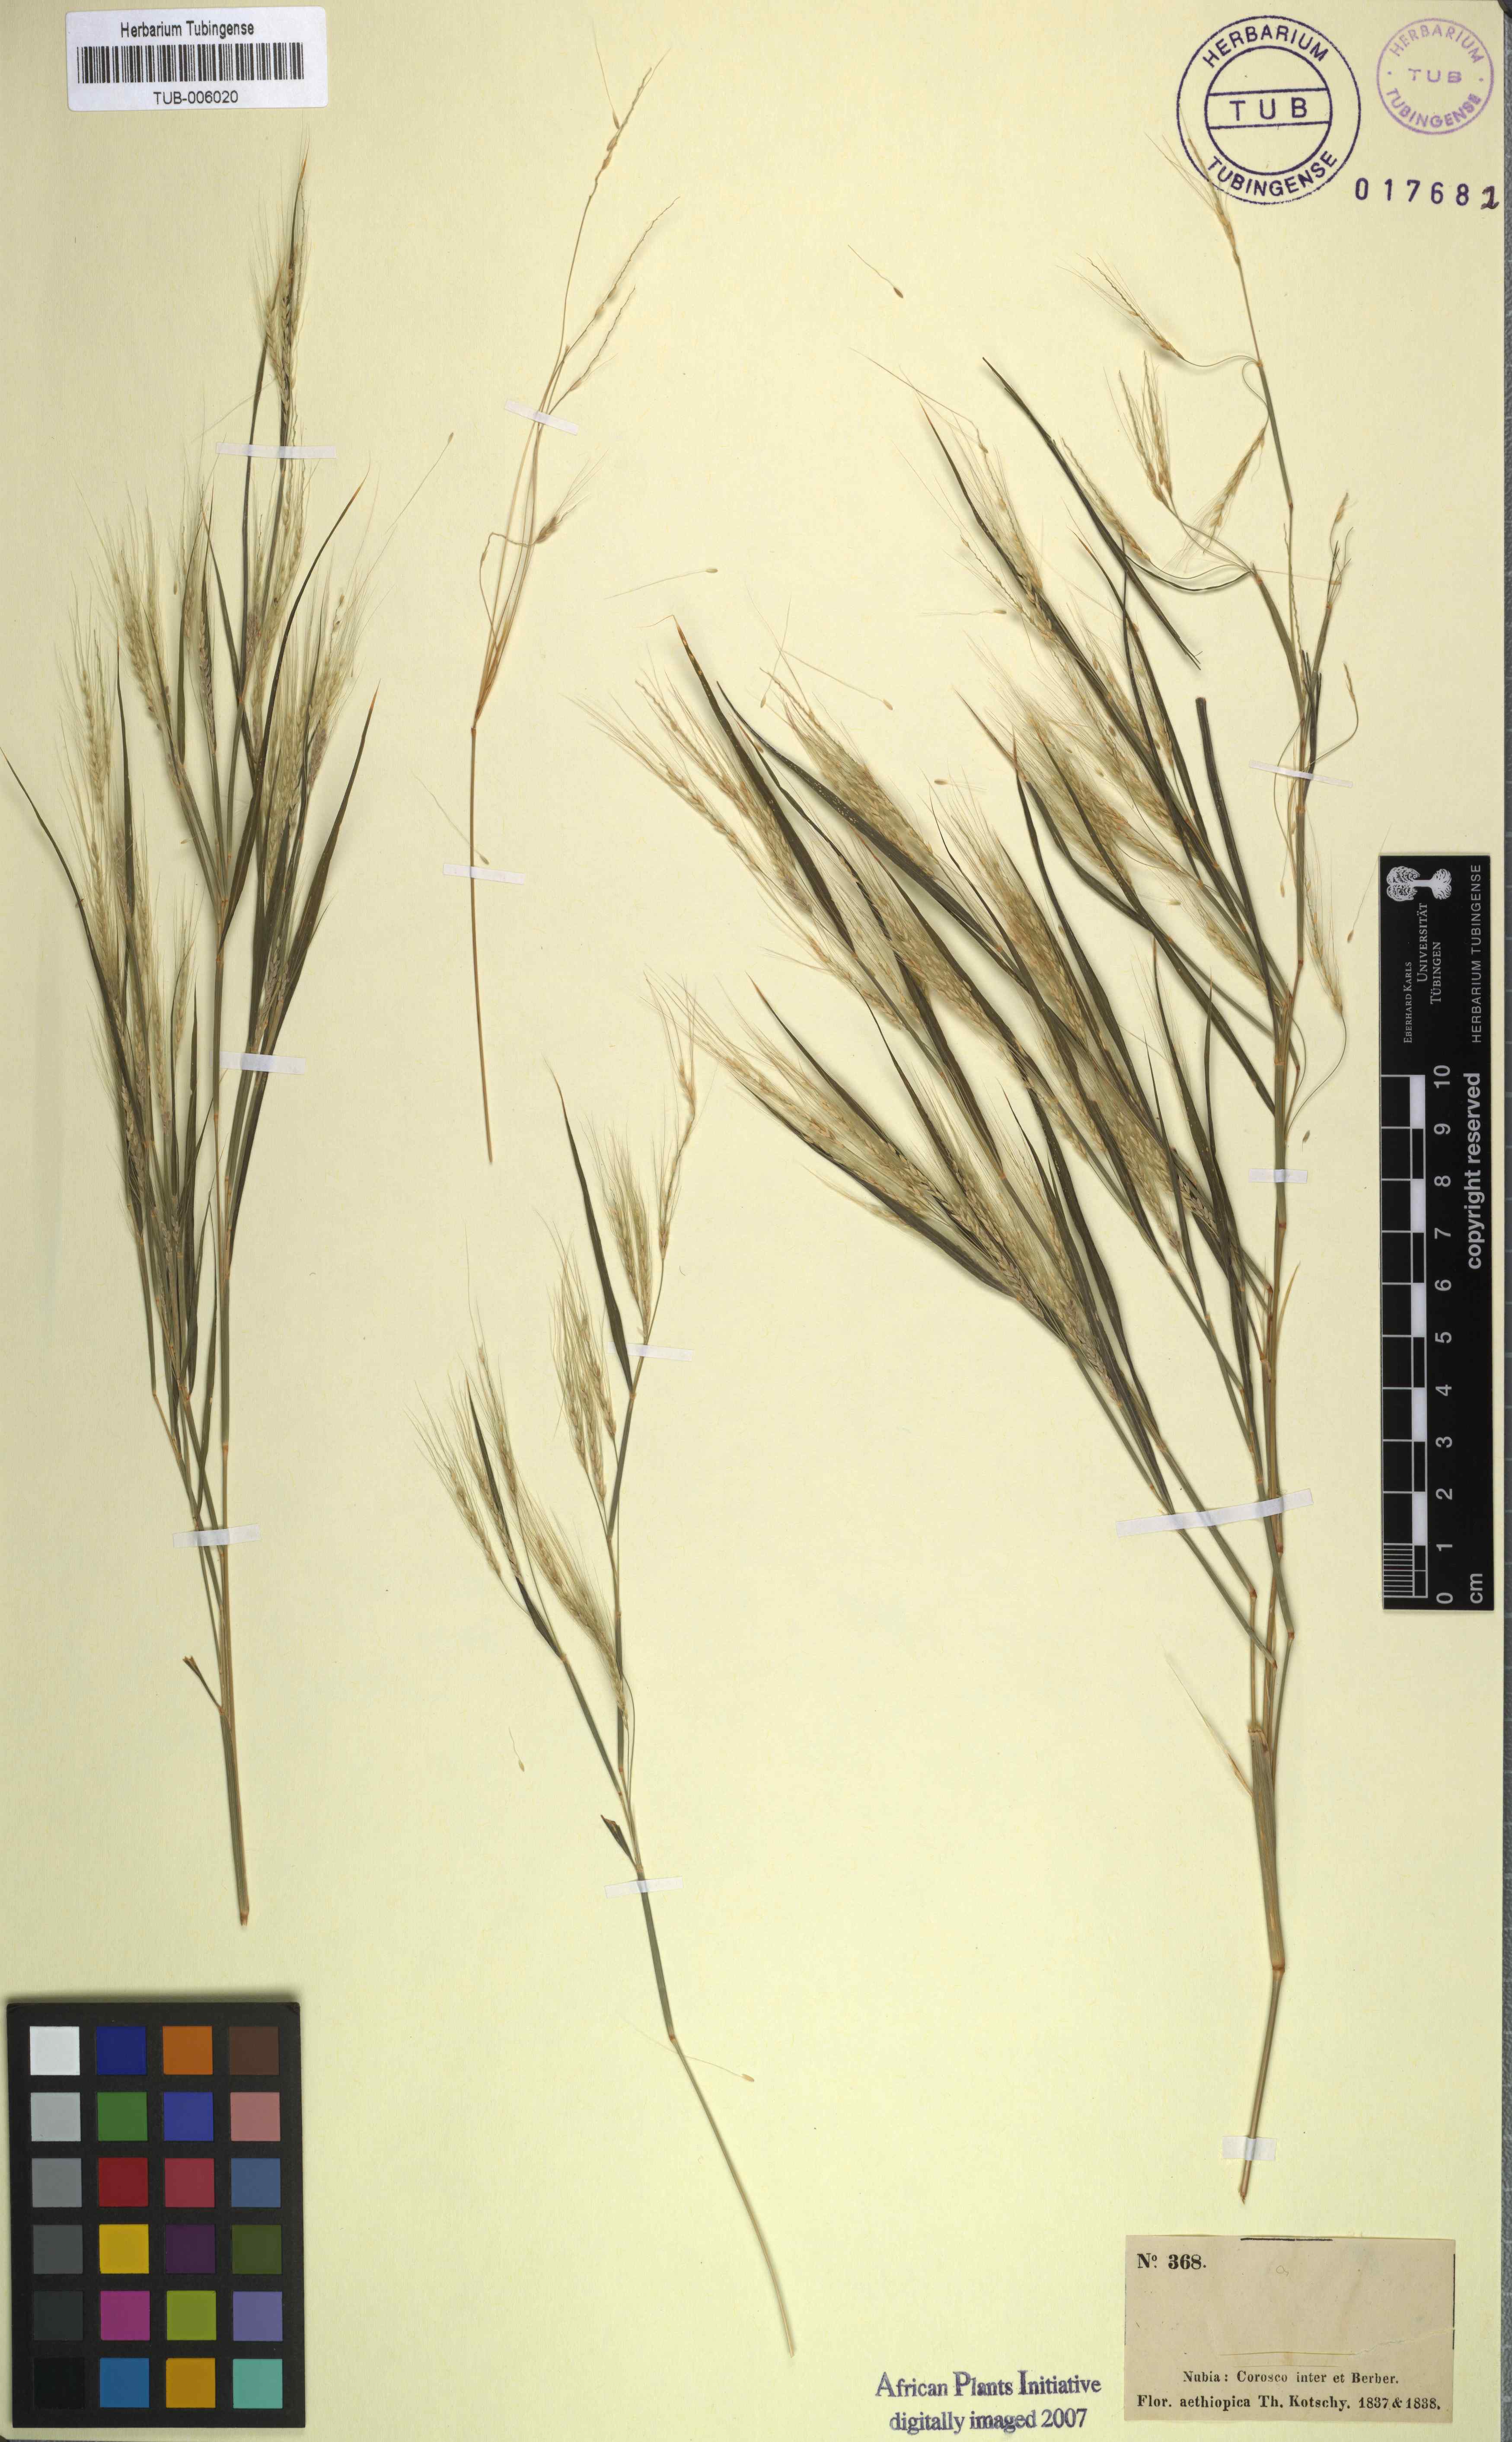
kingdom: Plantae
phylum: Tracheophyta
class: Liliopsida
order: Poales
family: Poaceae
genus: Cenchrus
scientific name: Cenchrus nubicus
